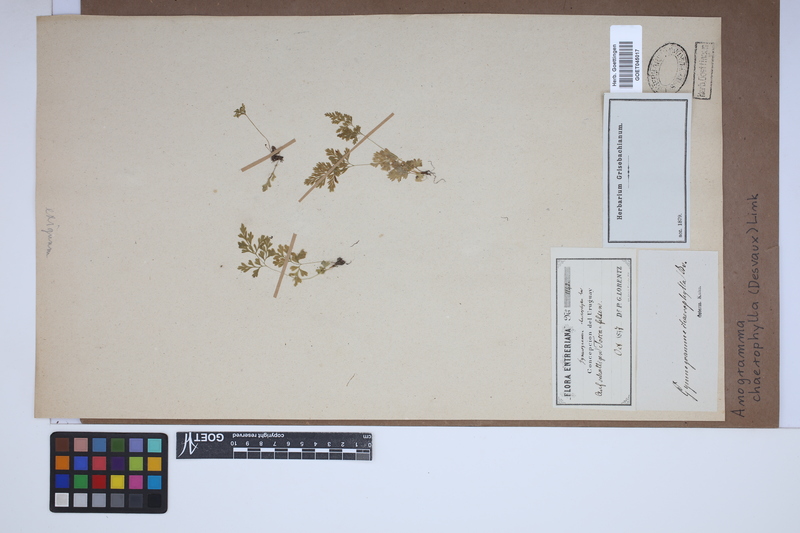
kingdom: Plantae
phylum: Tracheophyta
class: Polypodiopsida
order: Polypodiales
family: Pteridaceae
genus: Gastoniella
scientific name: Gastoniella chaerophylla
